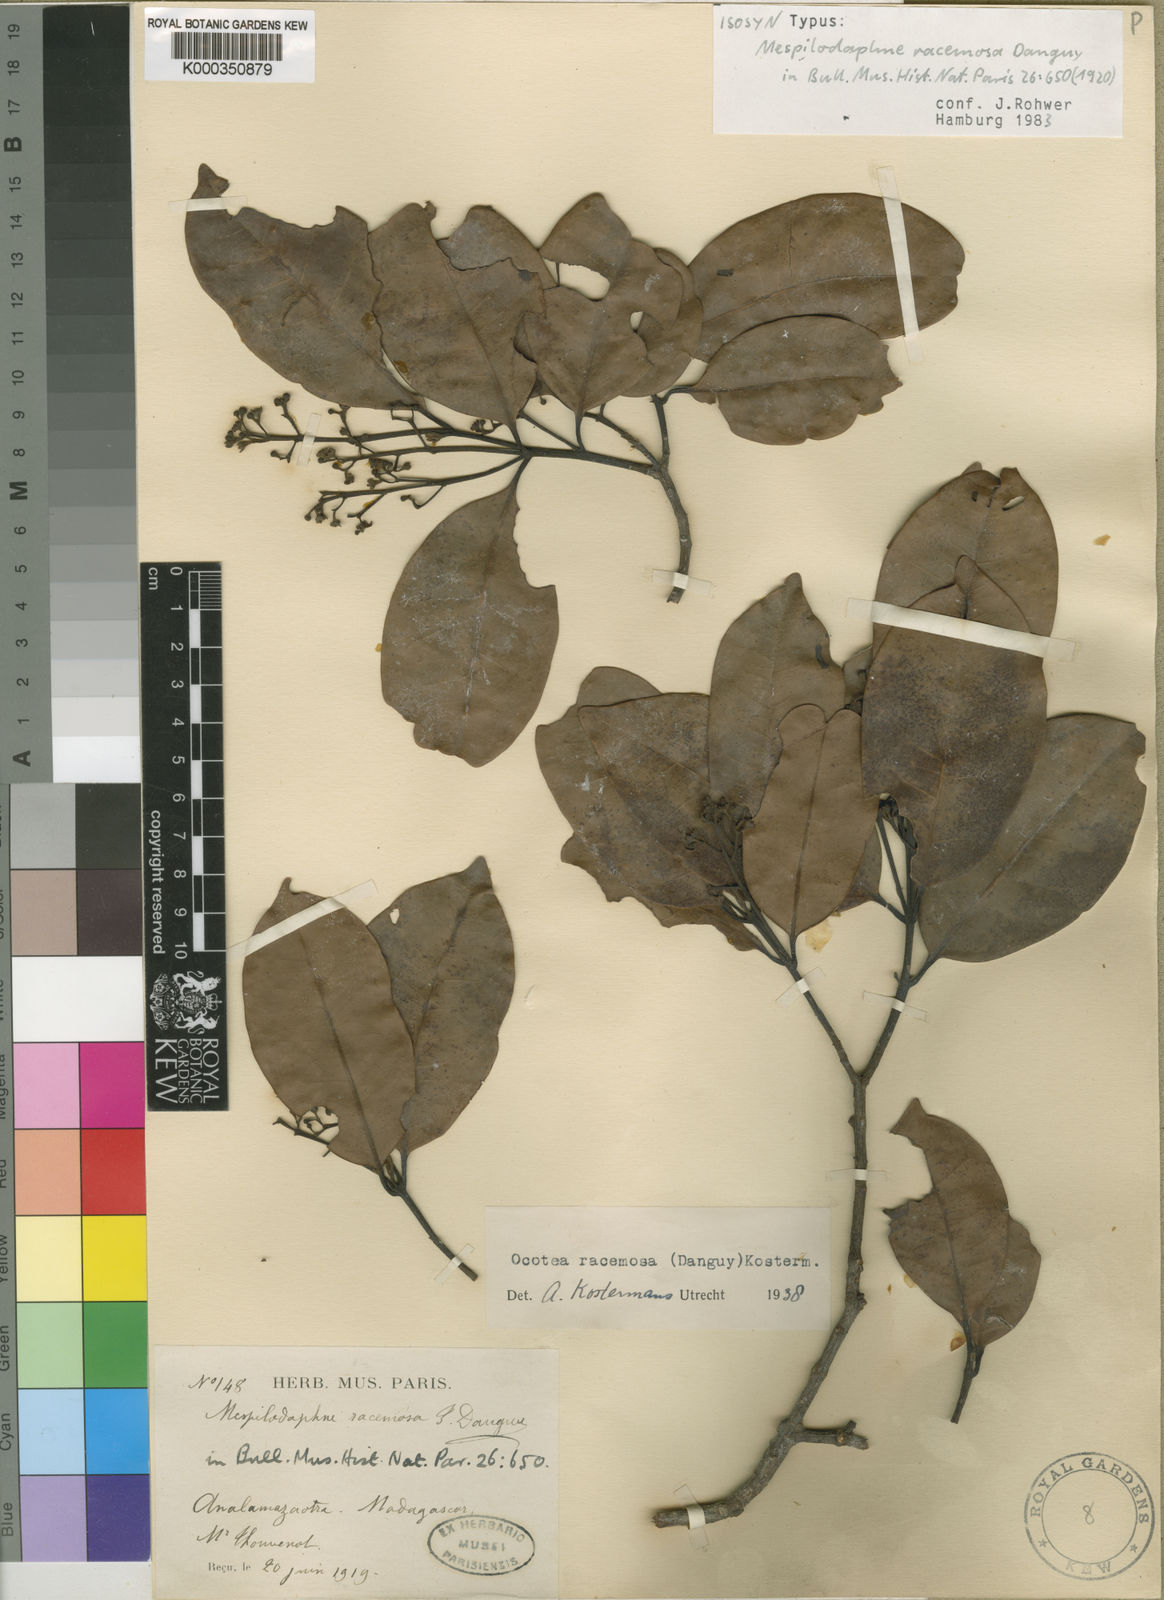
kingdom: Plantae
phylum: Tracheophyta
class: Magnoliopsida
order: Laurales
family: Lauraceae
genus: Mespilodaphne
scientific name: Mespilodaphne racemosa
